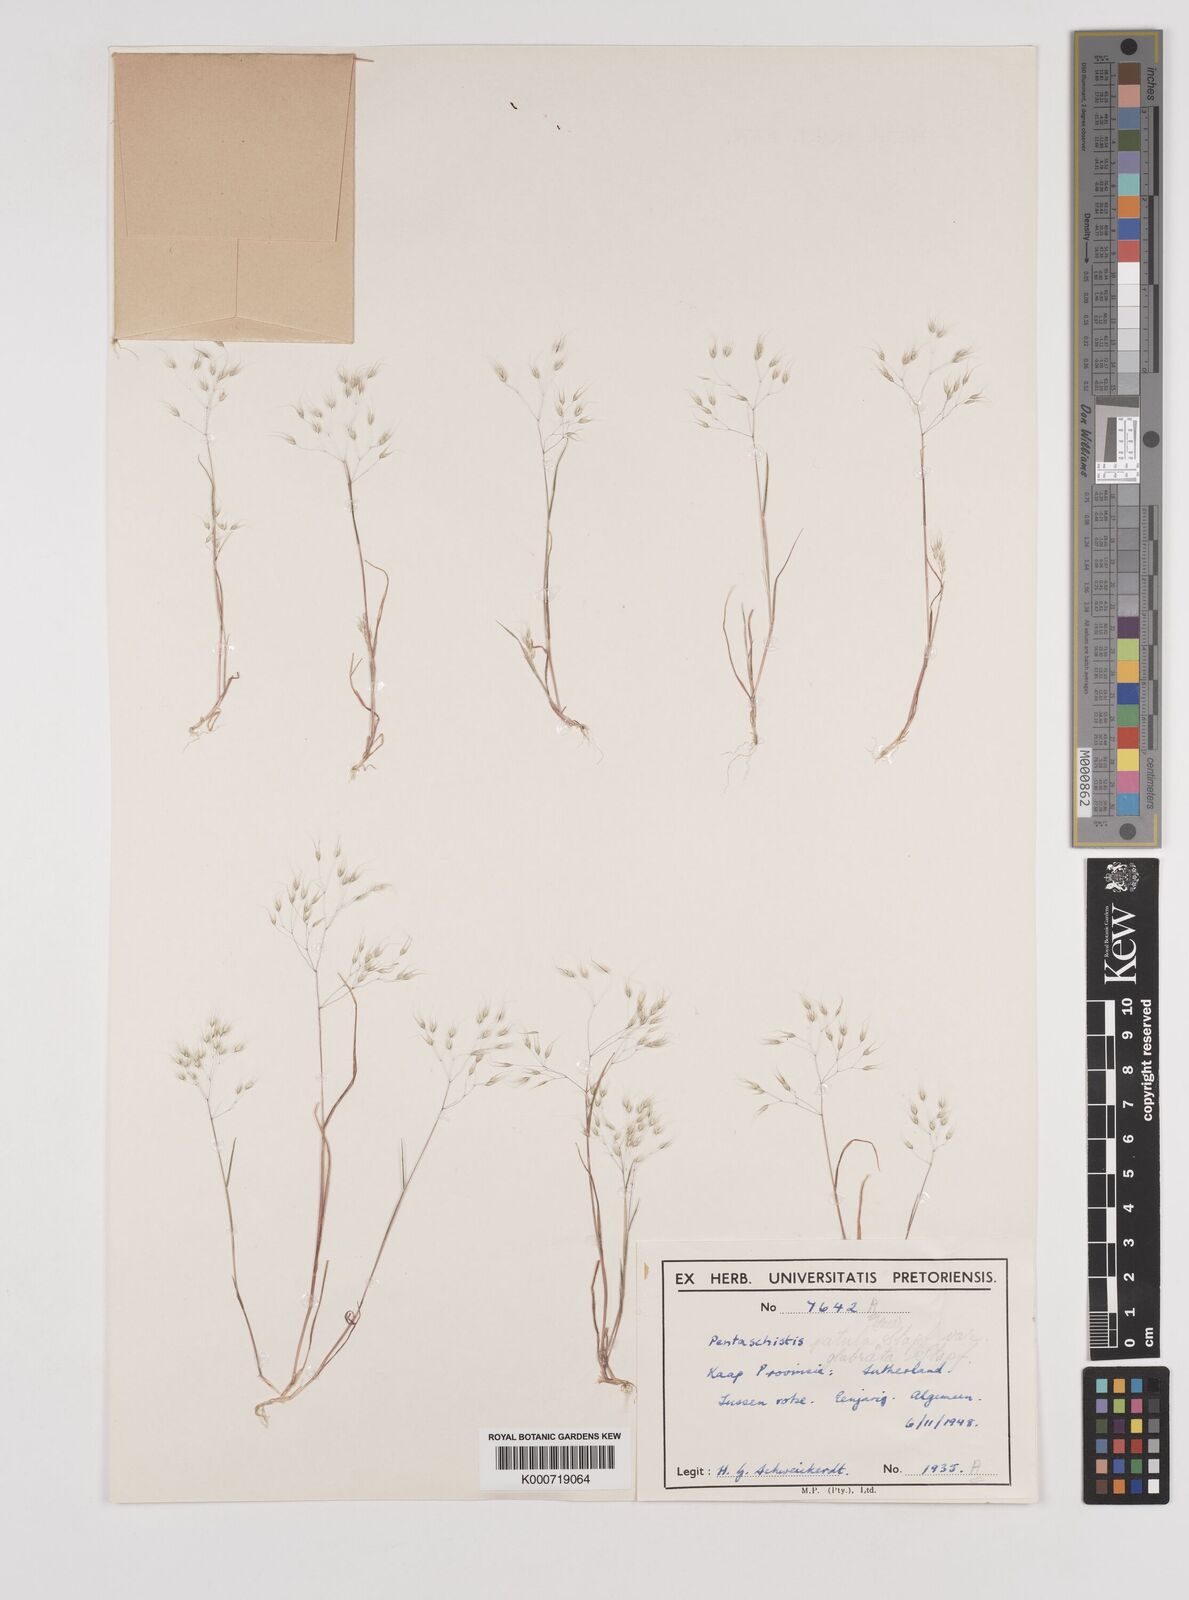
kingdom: Plantae
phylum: Tracheophyta
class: Liliopsida
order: Poales
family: Poaceae
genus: Pentameris
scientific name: Pentameris patula
